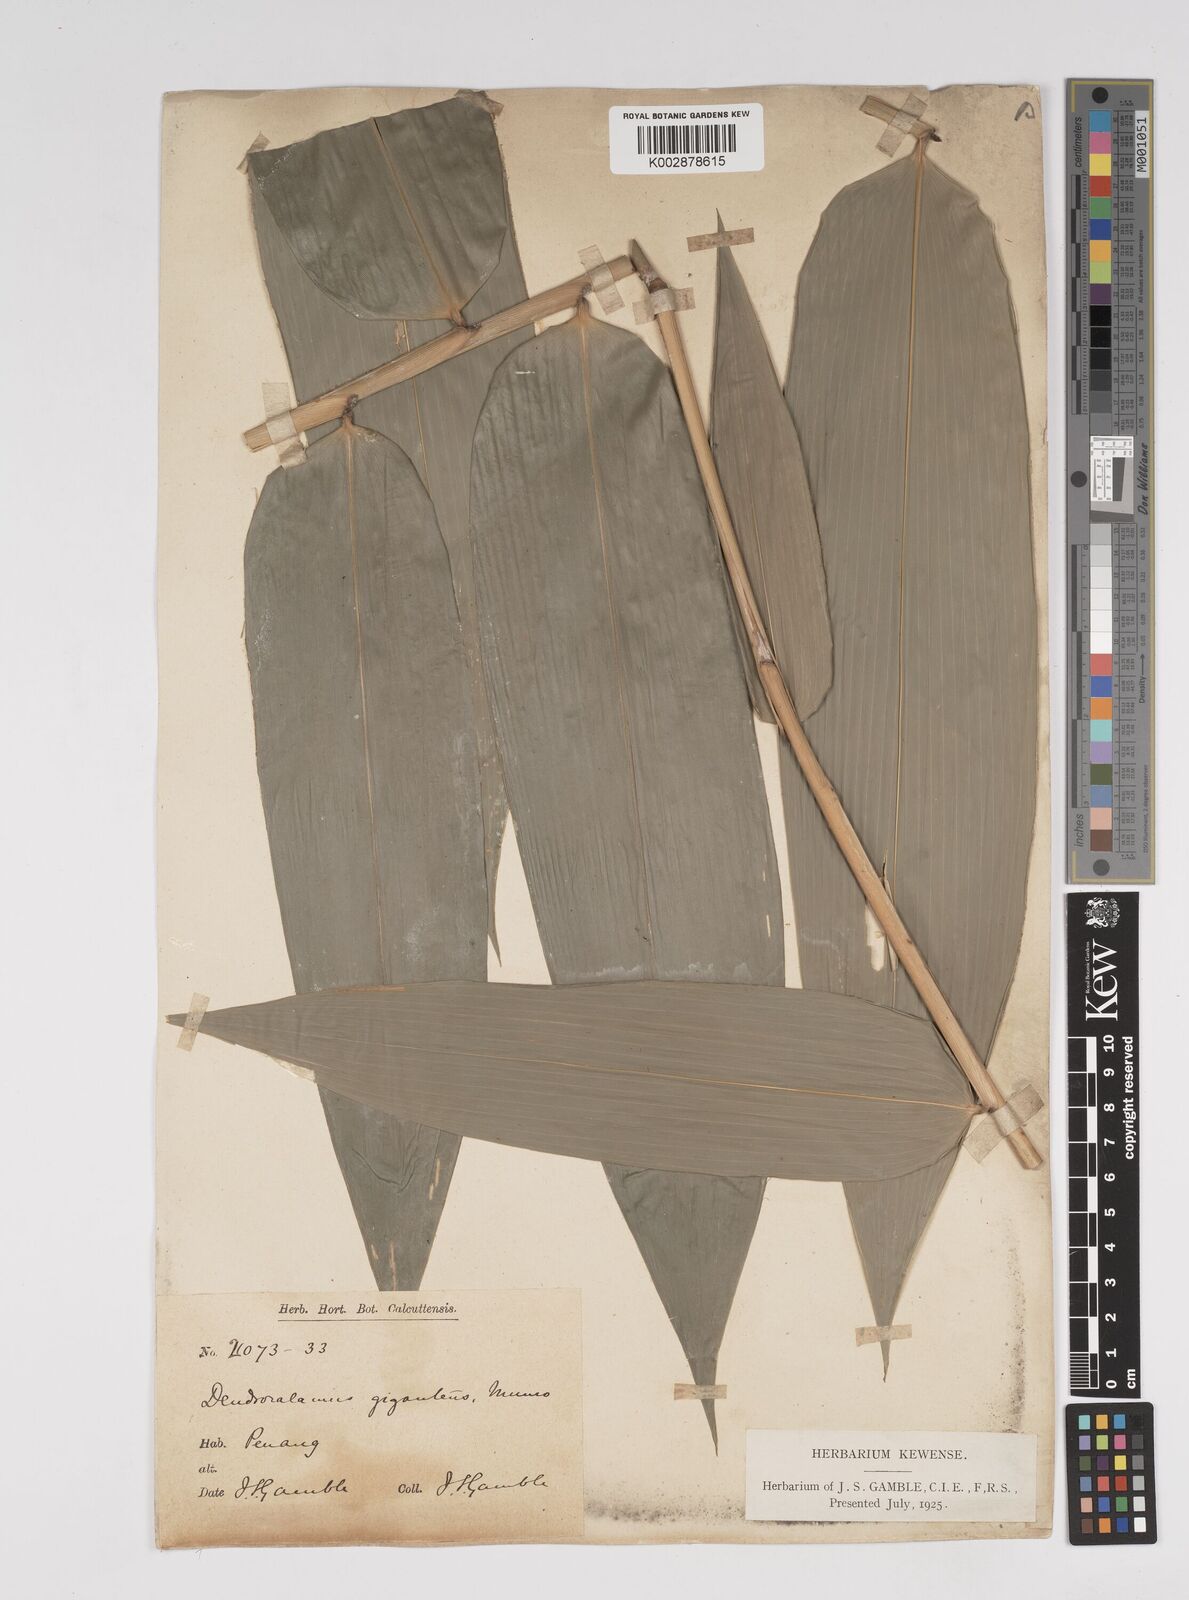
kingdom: Plantae
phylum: Tracheophyta
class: Liliopsida
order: Poales
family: Poaceae
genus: Dendrocalamus
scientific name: Dendrocalamus giganteus
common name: Giant bamboo
